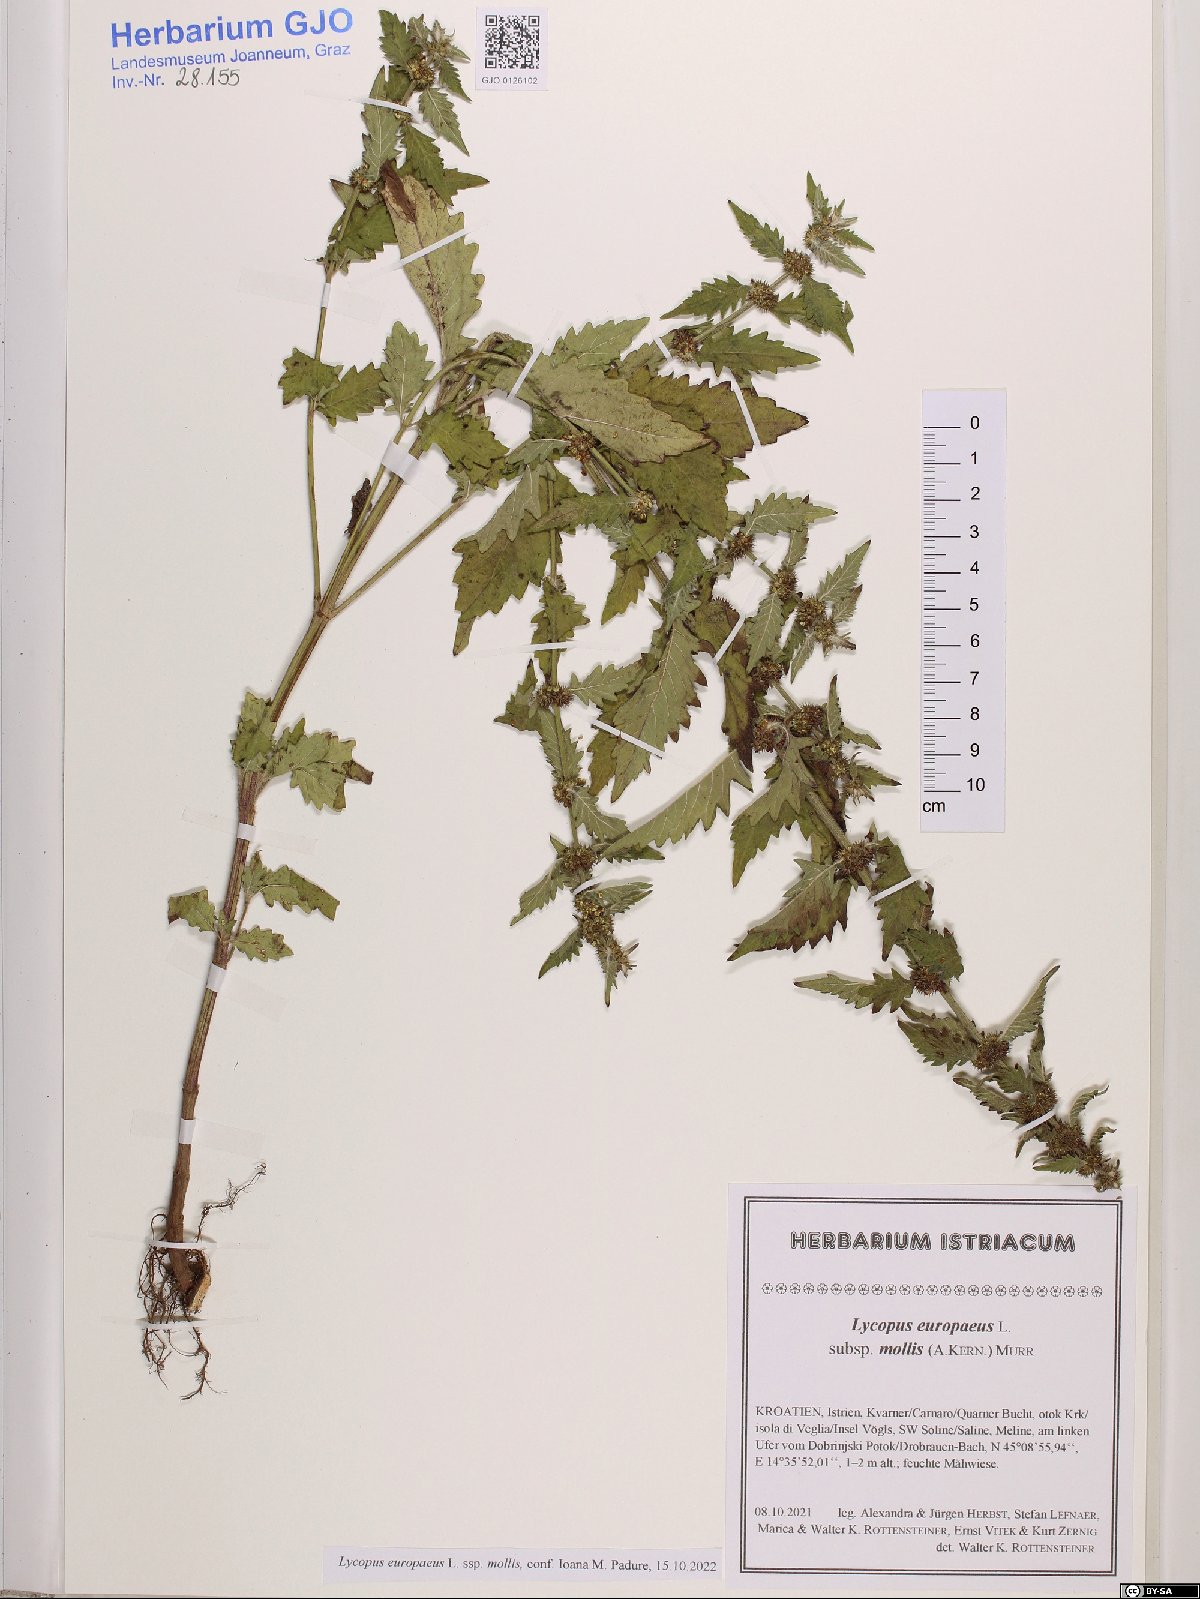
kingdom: Plantae
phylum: Tracheophyta
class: Magnoliopsida
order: Lamiales
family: Lamiaceae
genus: Lycopus
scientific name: Lycopus europaeus
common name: European bugleweed
